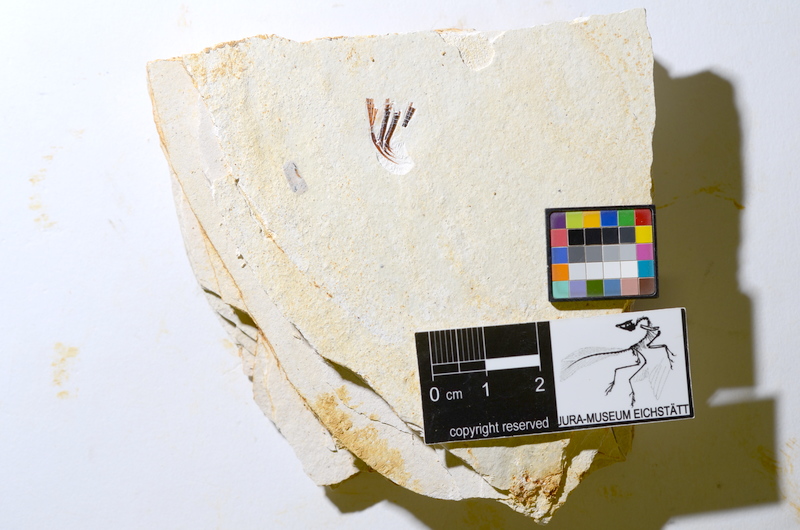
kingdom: Animalia
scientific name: Animalia
